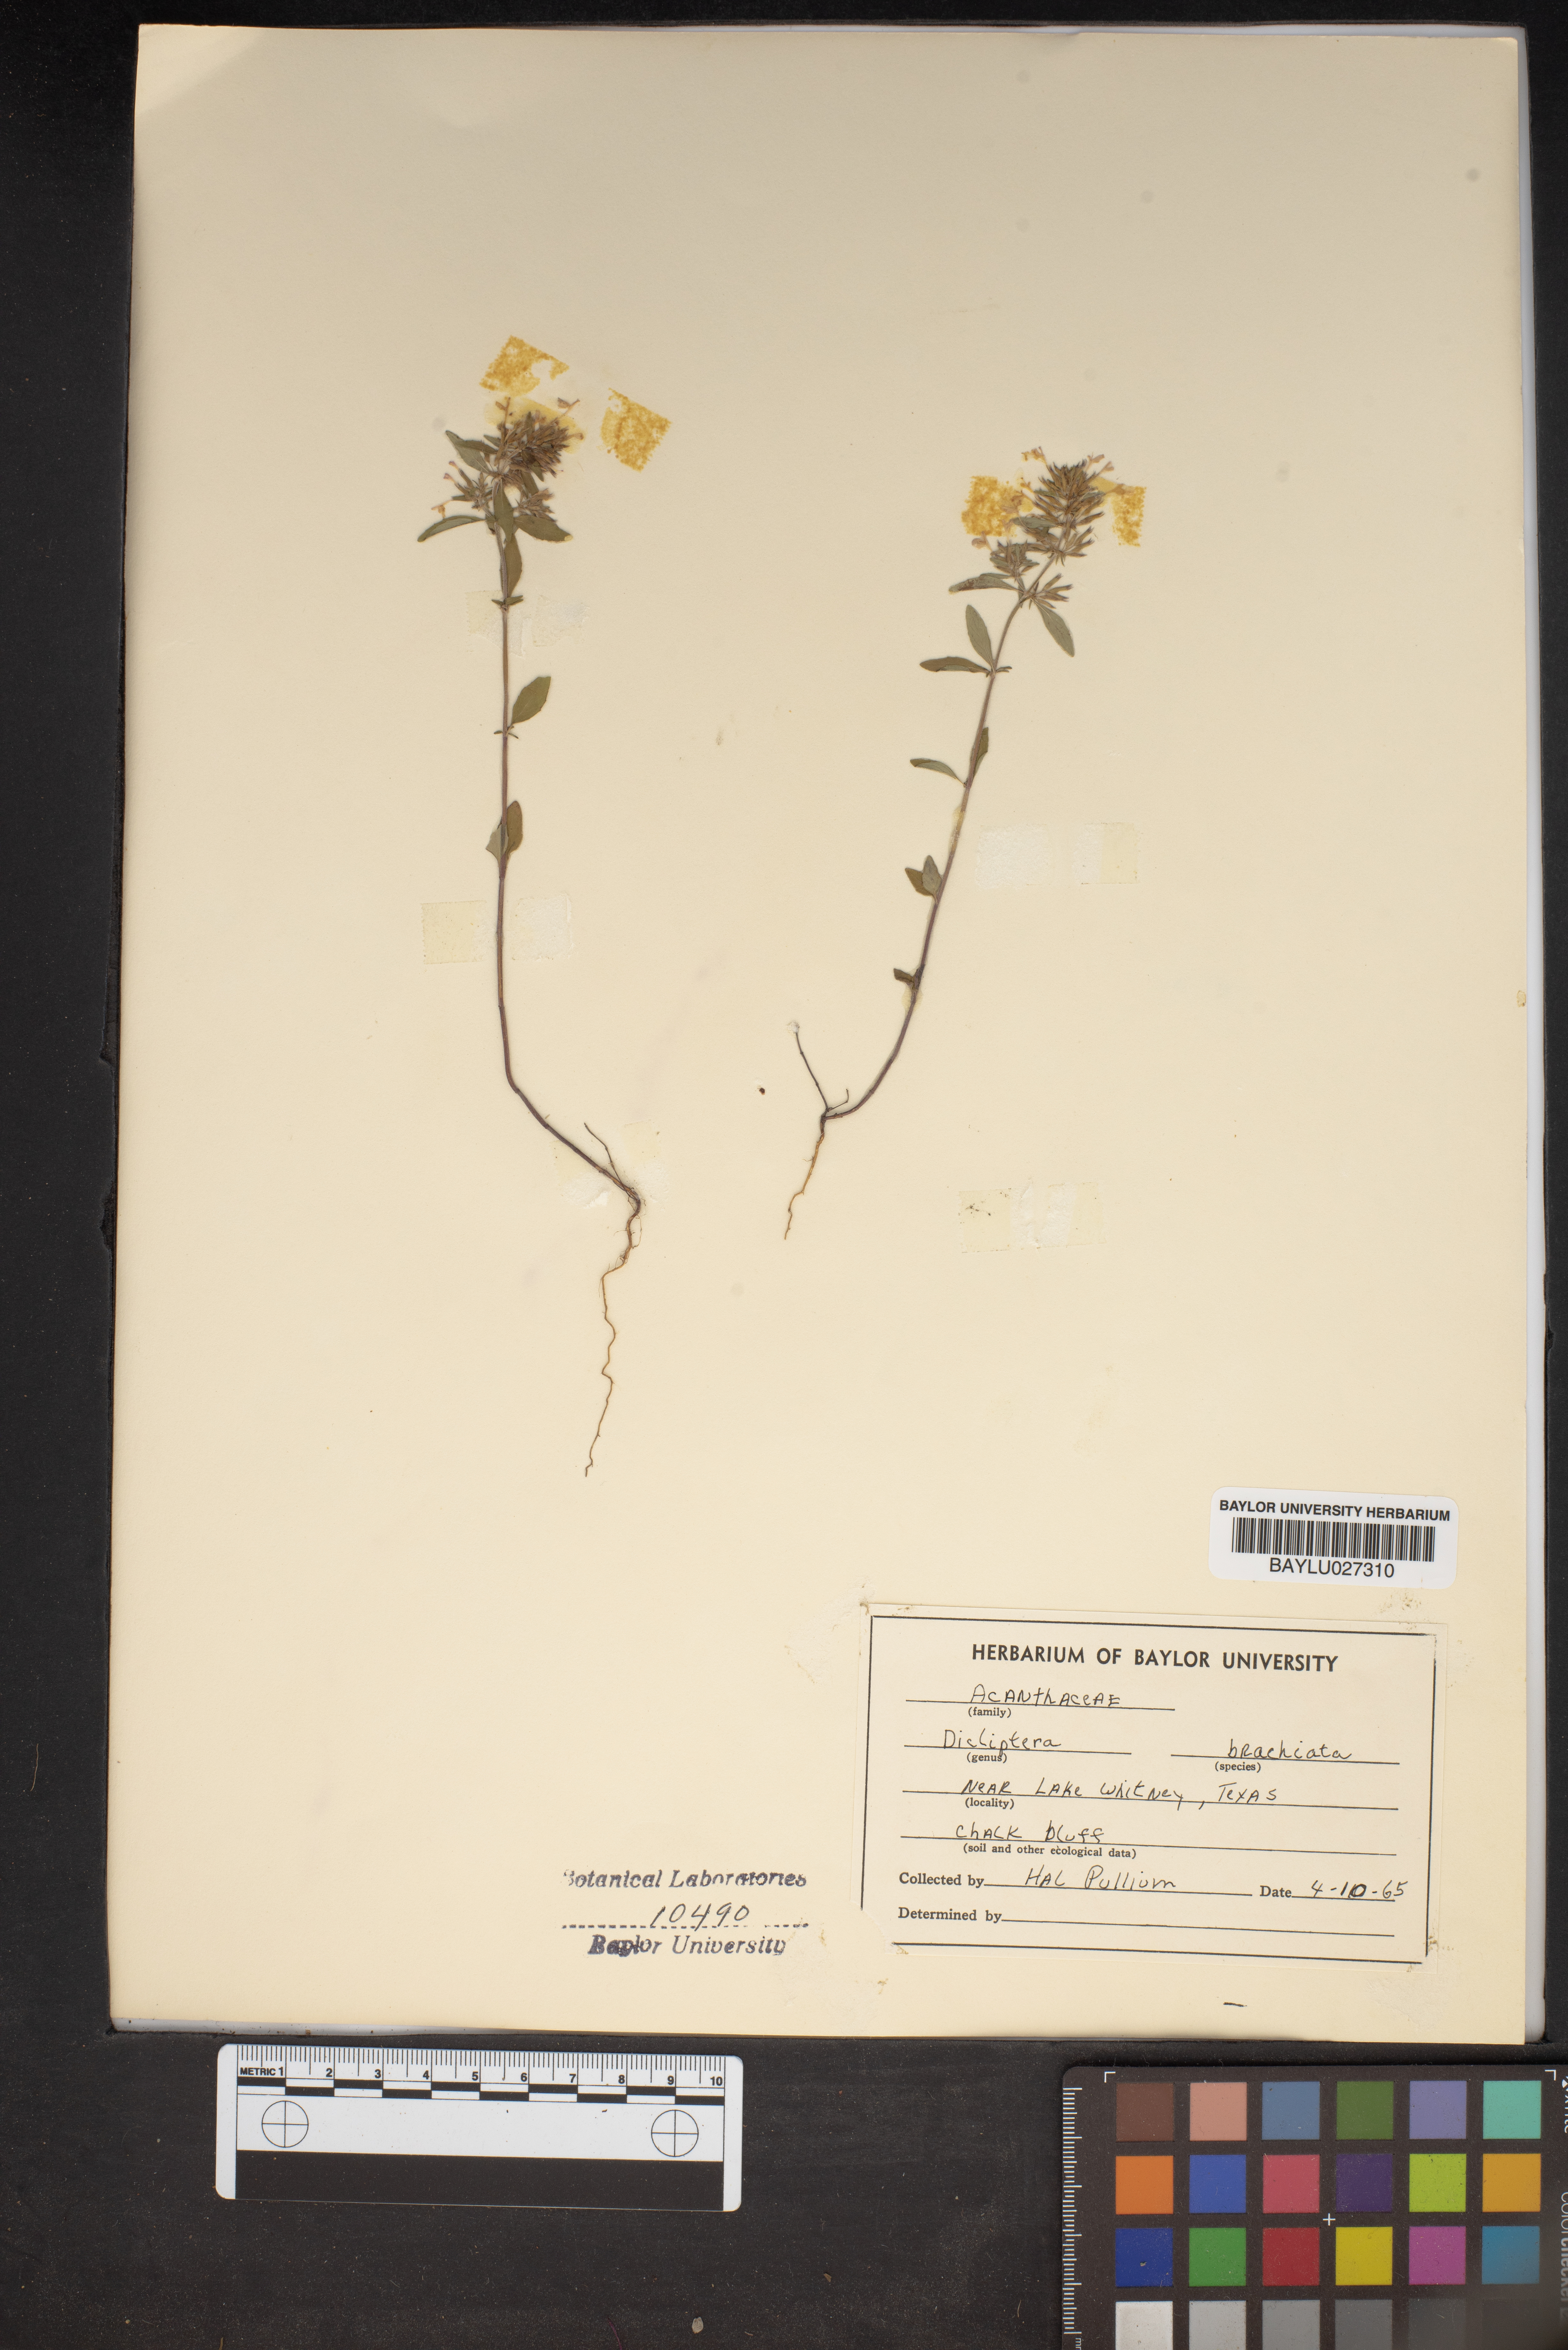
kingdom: Plantae
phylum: Tracheophyta
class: Magnoliopsida
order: Lamiales
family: Acanthaceae
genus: Dicliptera
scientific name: Dicliptera brachiata
